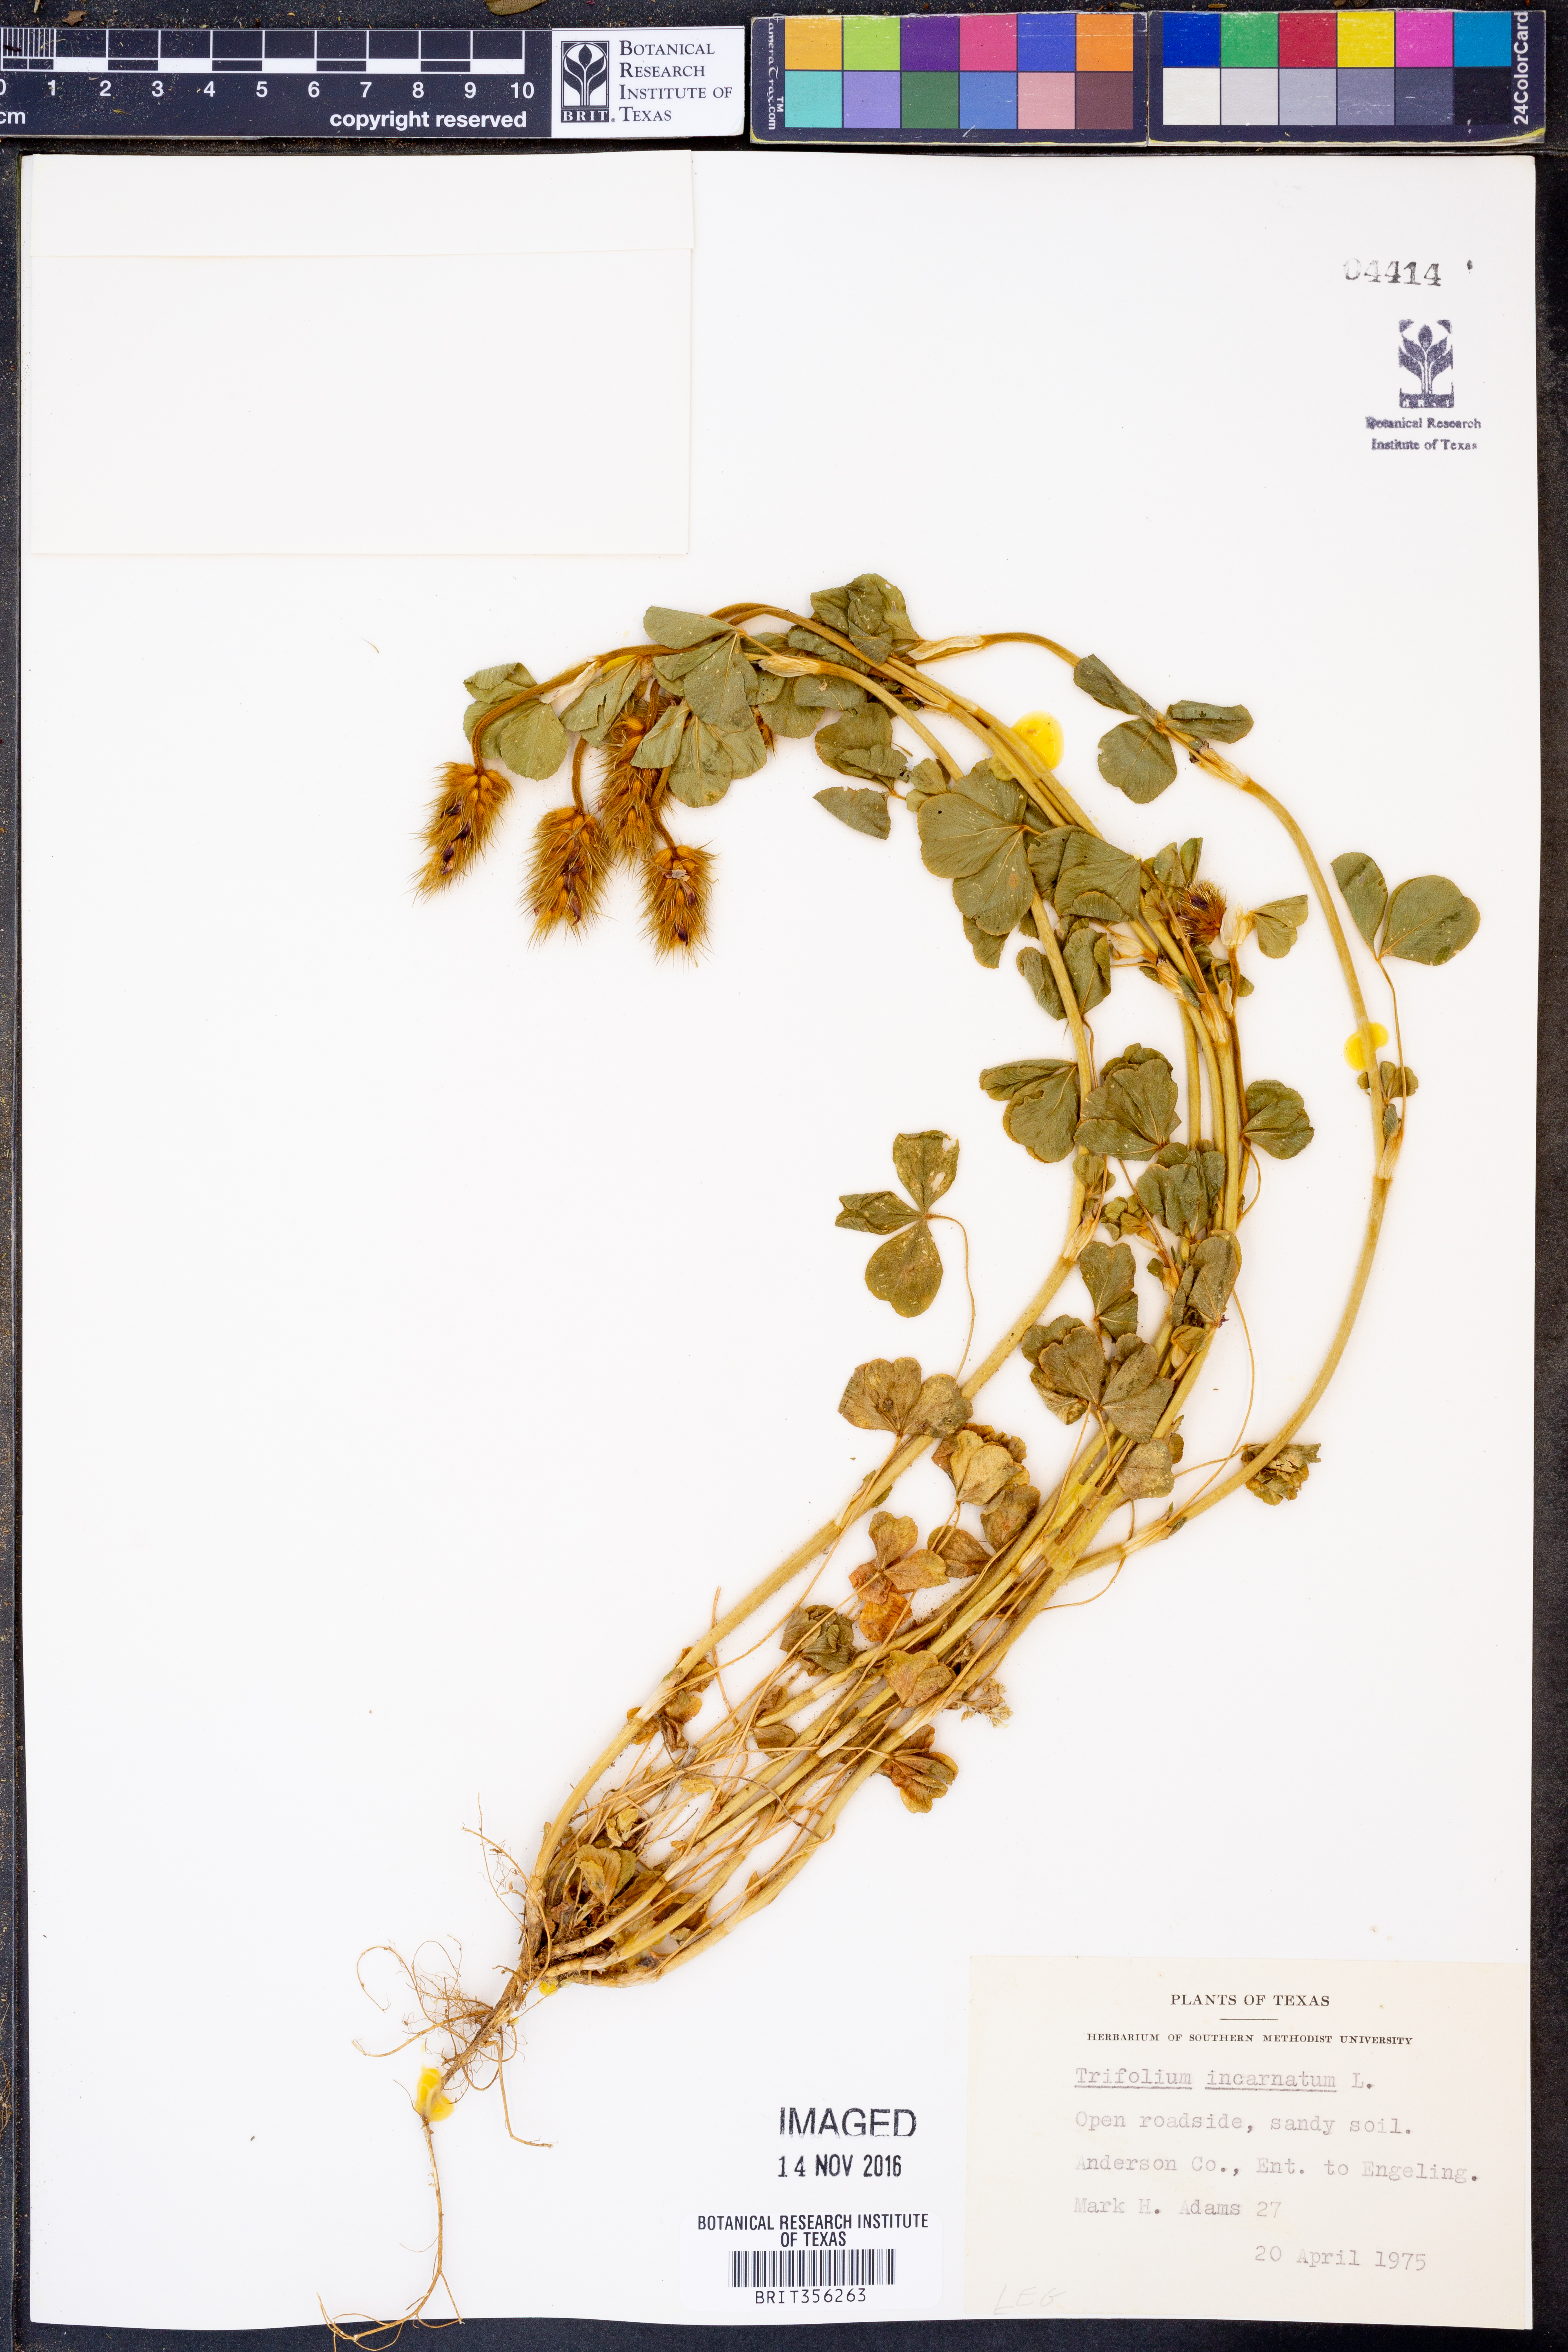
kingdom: Plantae
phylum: Tracheophyta
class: Magnoliopsida
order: Fabales
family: Fabaceae
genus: Trifolium
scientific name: Trifolium incarnatum
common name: Crimson clover
